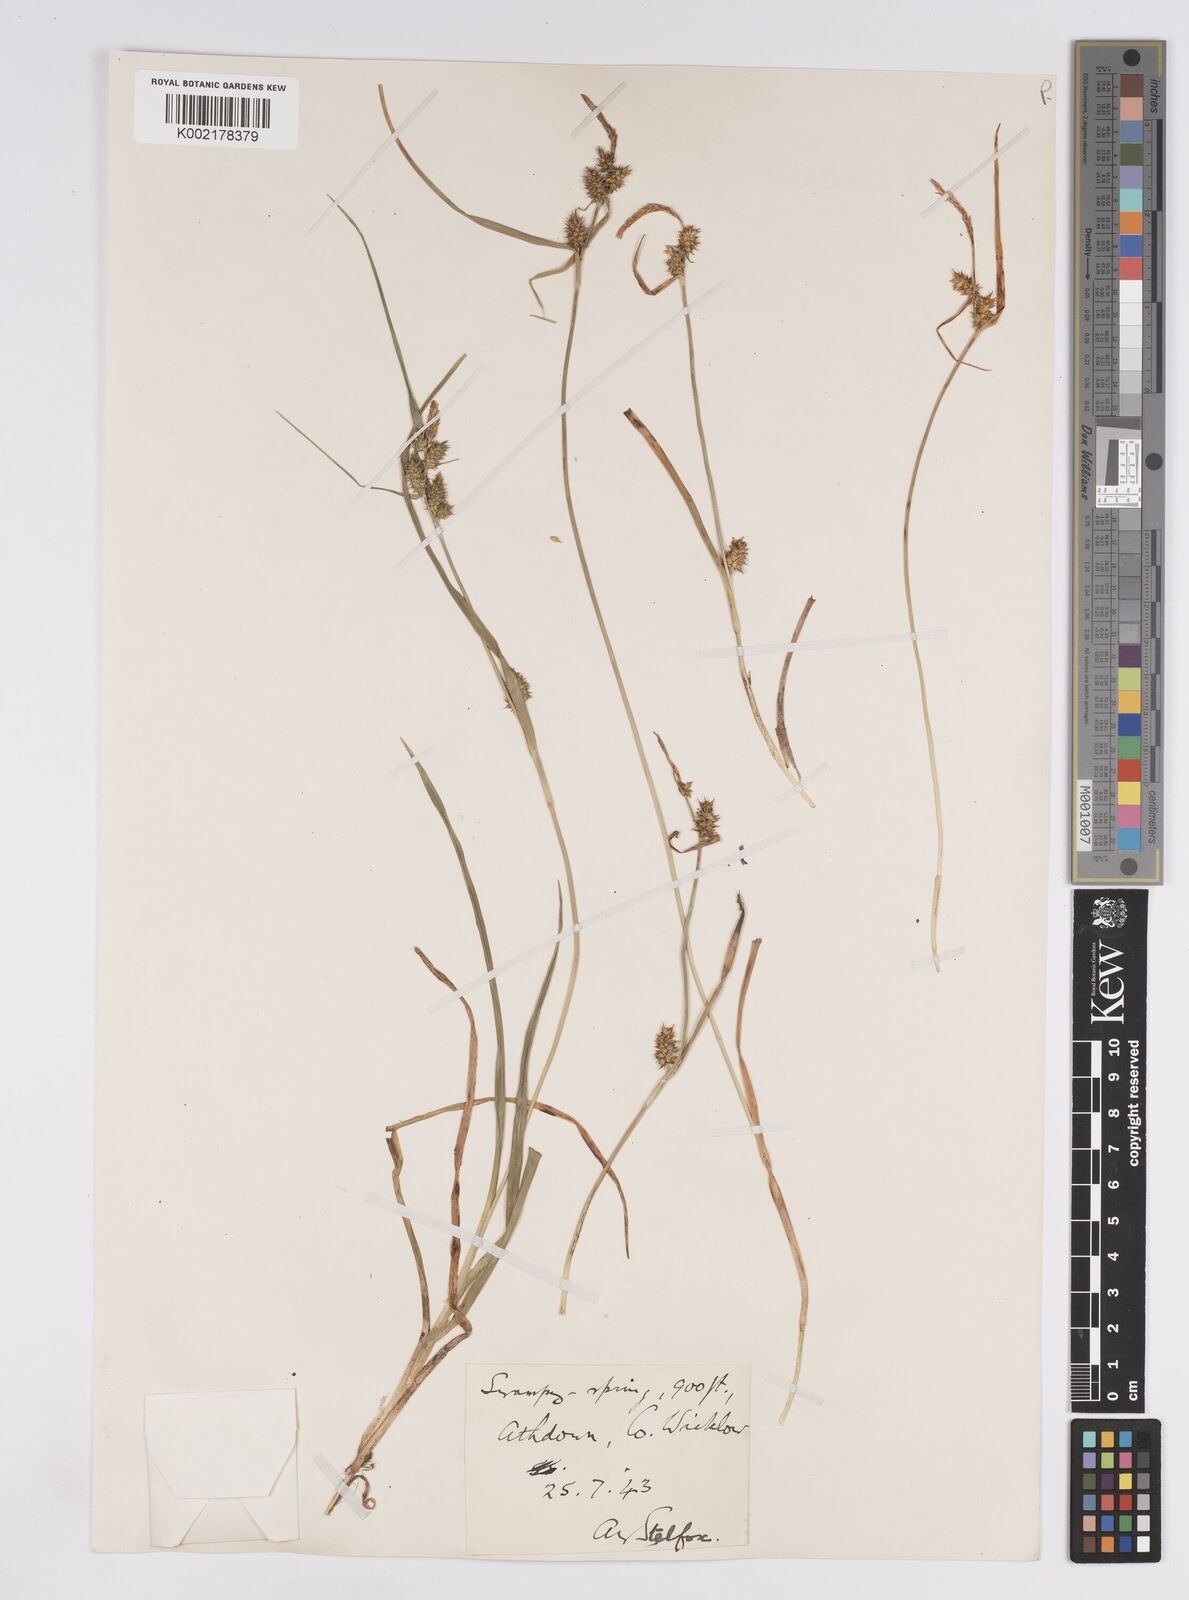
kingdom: Plantae
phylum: Tracheophyta
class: Liliopsida
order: Poales
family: Cyperaceae
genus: Carex
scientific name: Carex demissa
